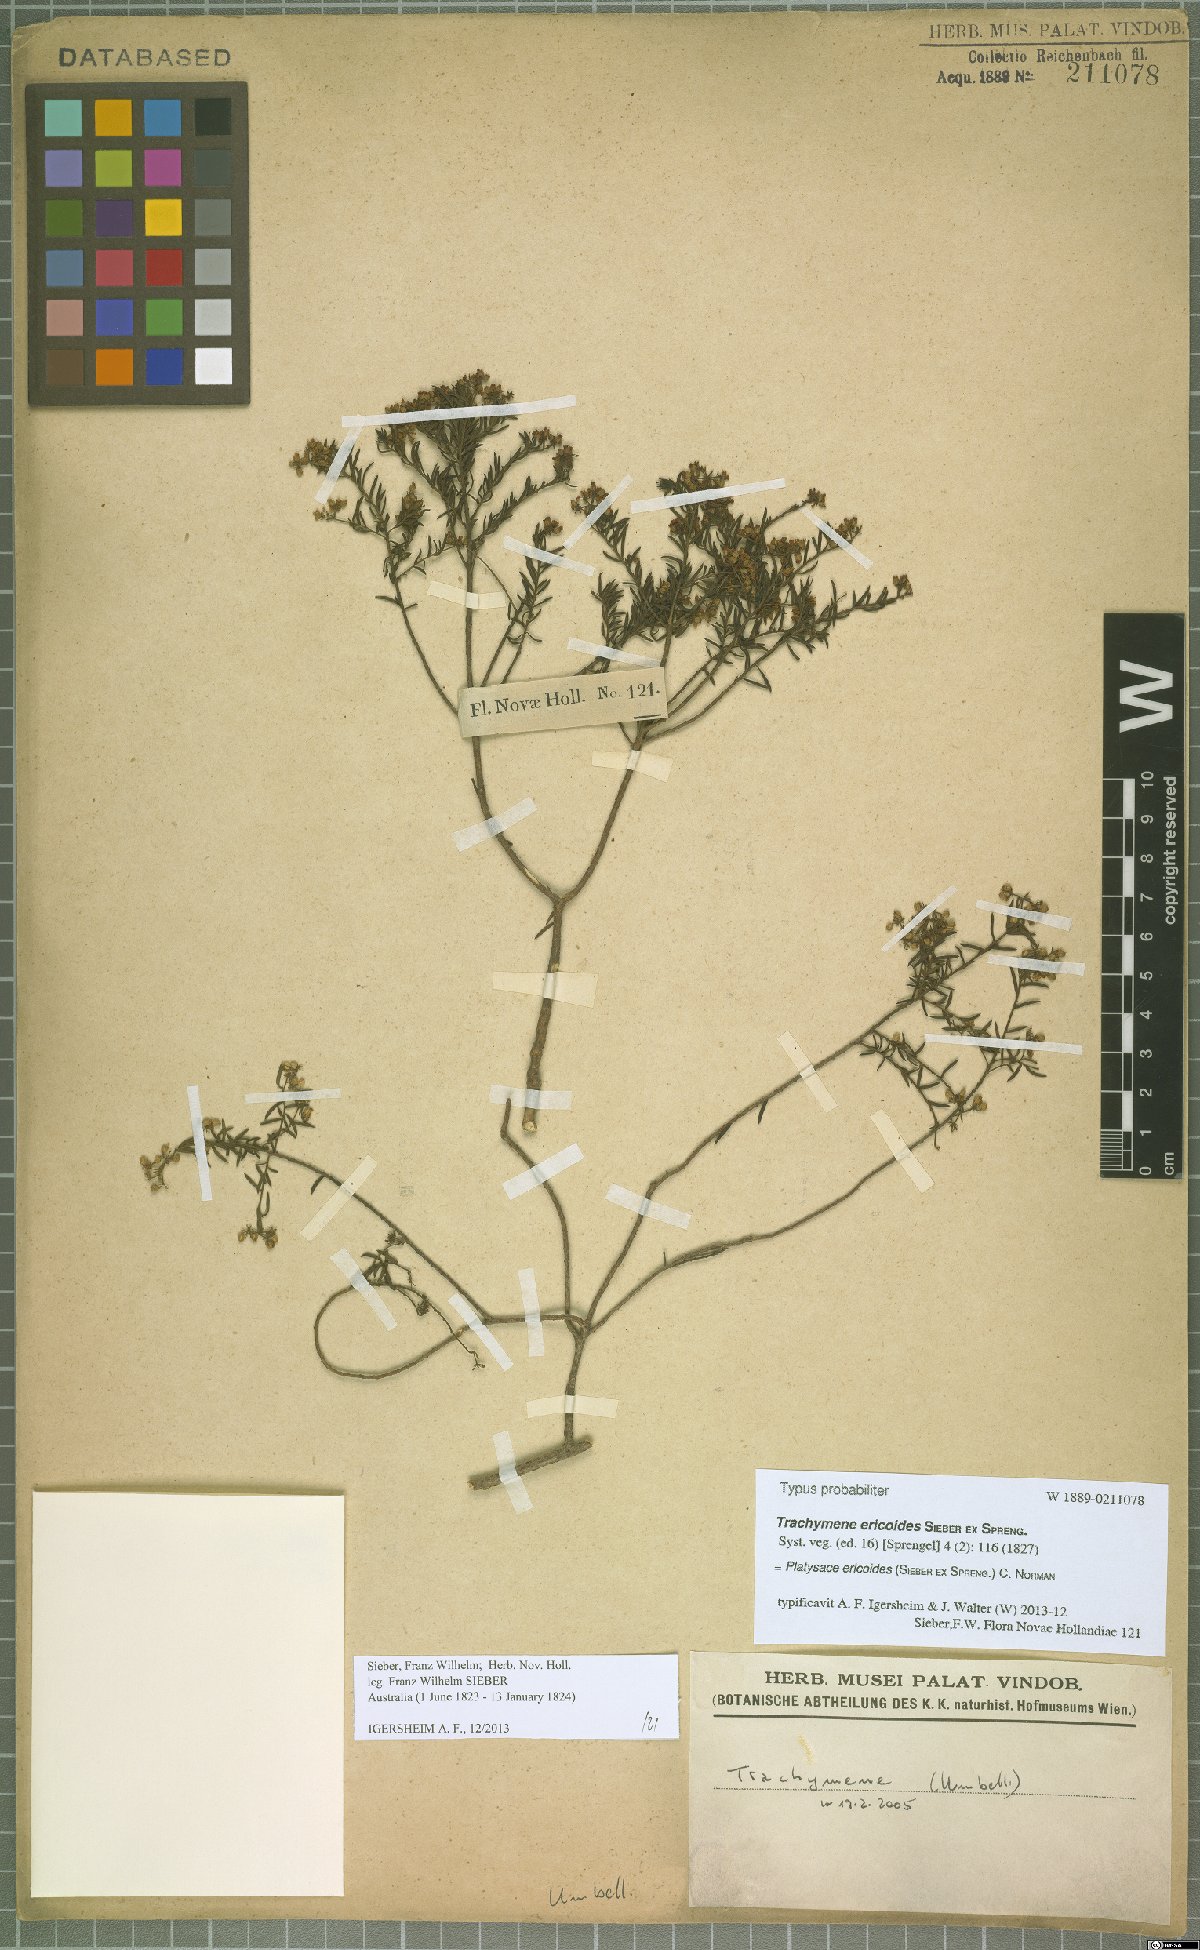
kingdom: Plantae
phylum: Tracheophyta
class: Magnoliopsida
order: Apiales
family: Apiaceae
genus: Platysace
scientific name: Platysace ericoides
